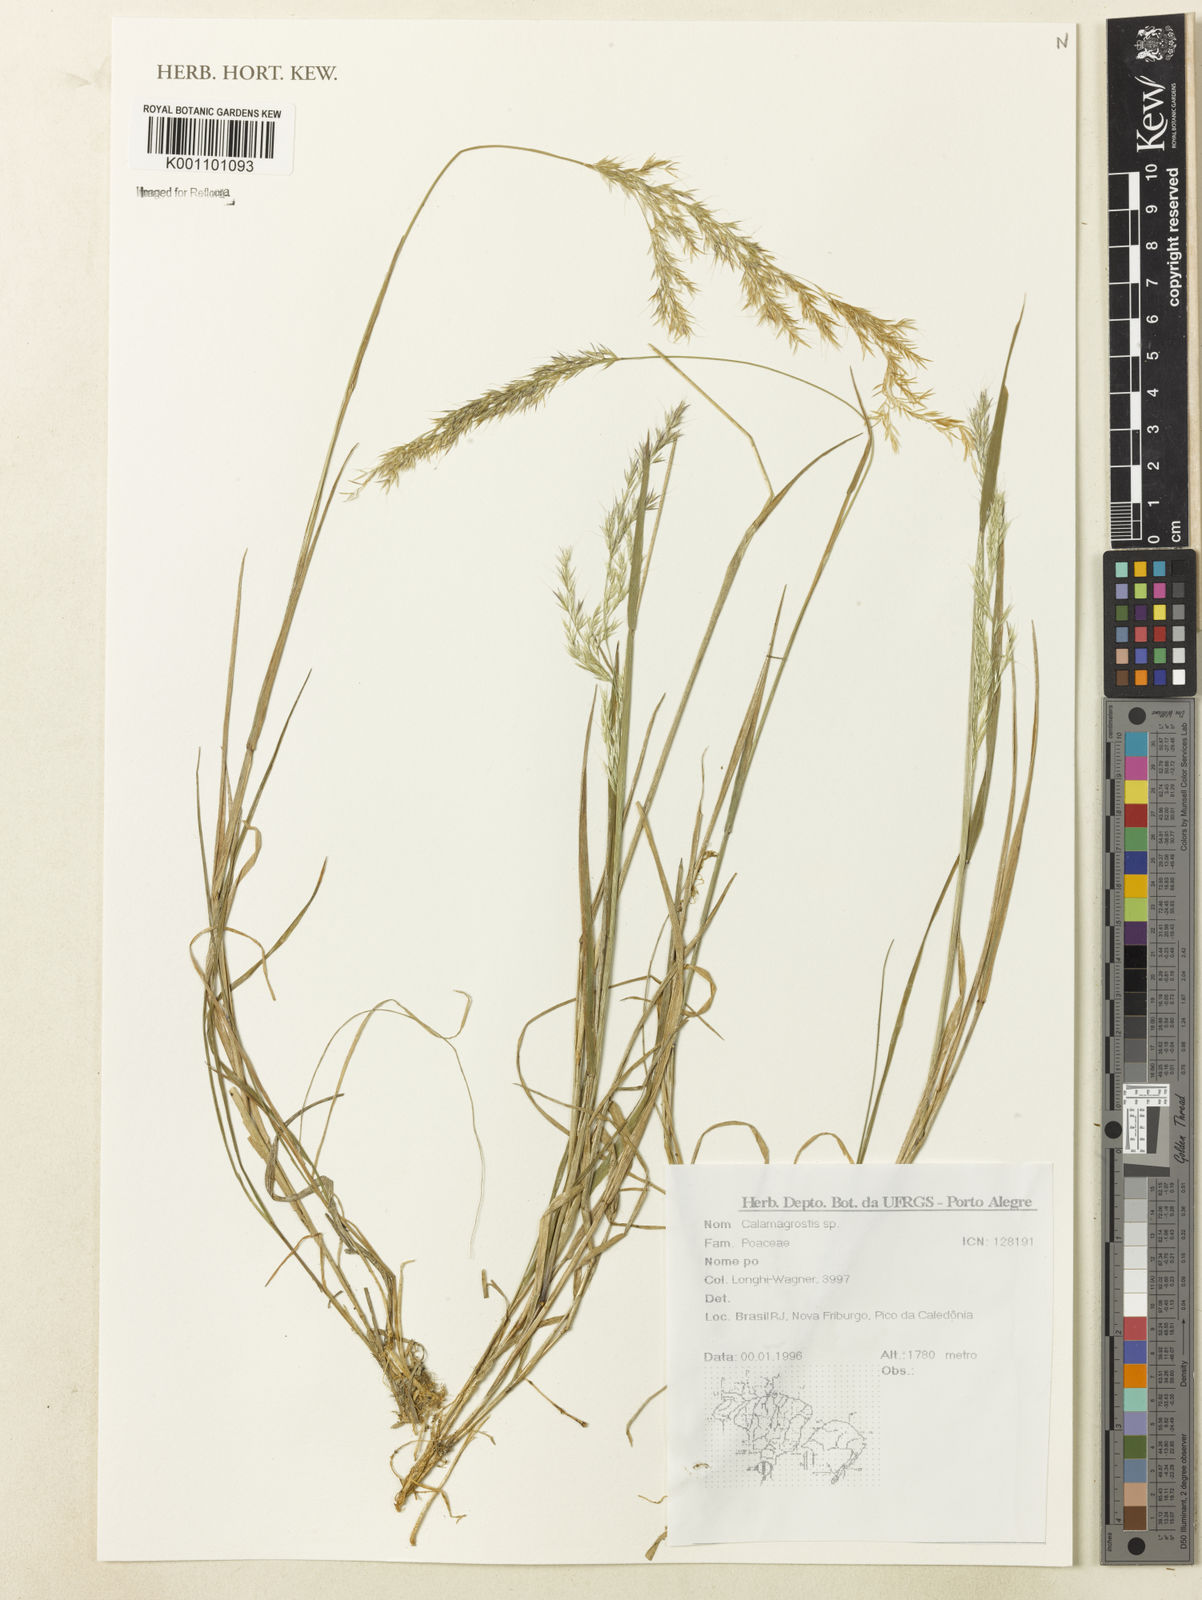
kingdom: Plantae
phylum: Tracheophyta
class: Liliopsida
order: Poales
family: Poaceae
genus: Calamagrostis
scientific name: Calamagrostis
